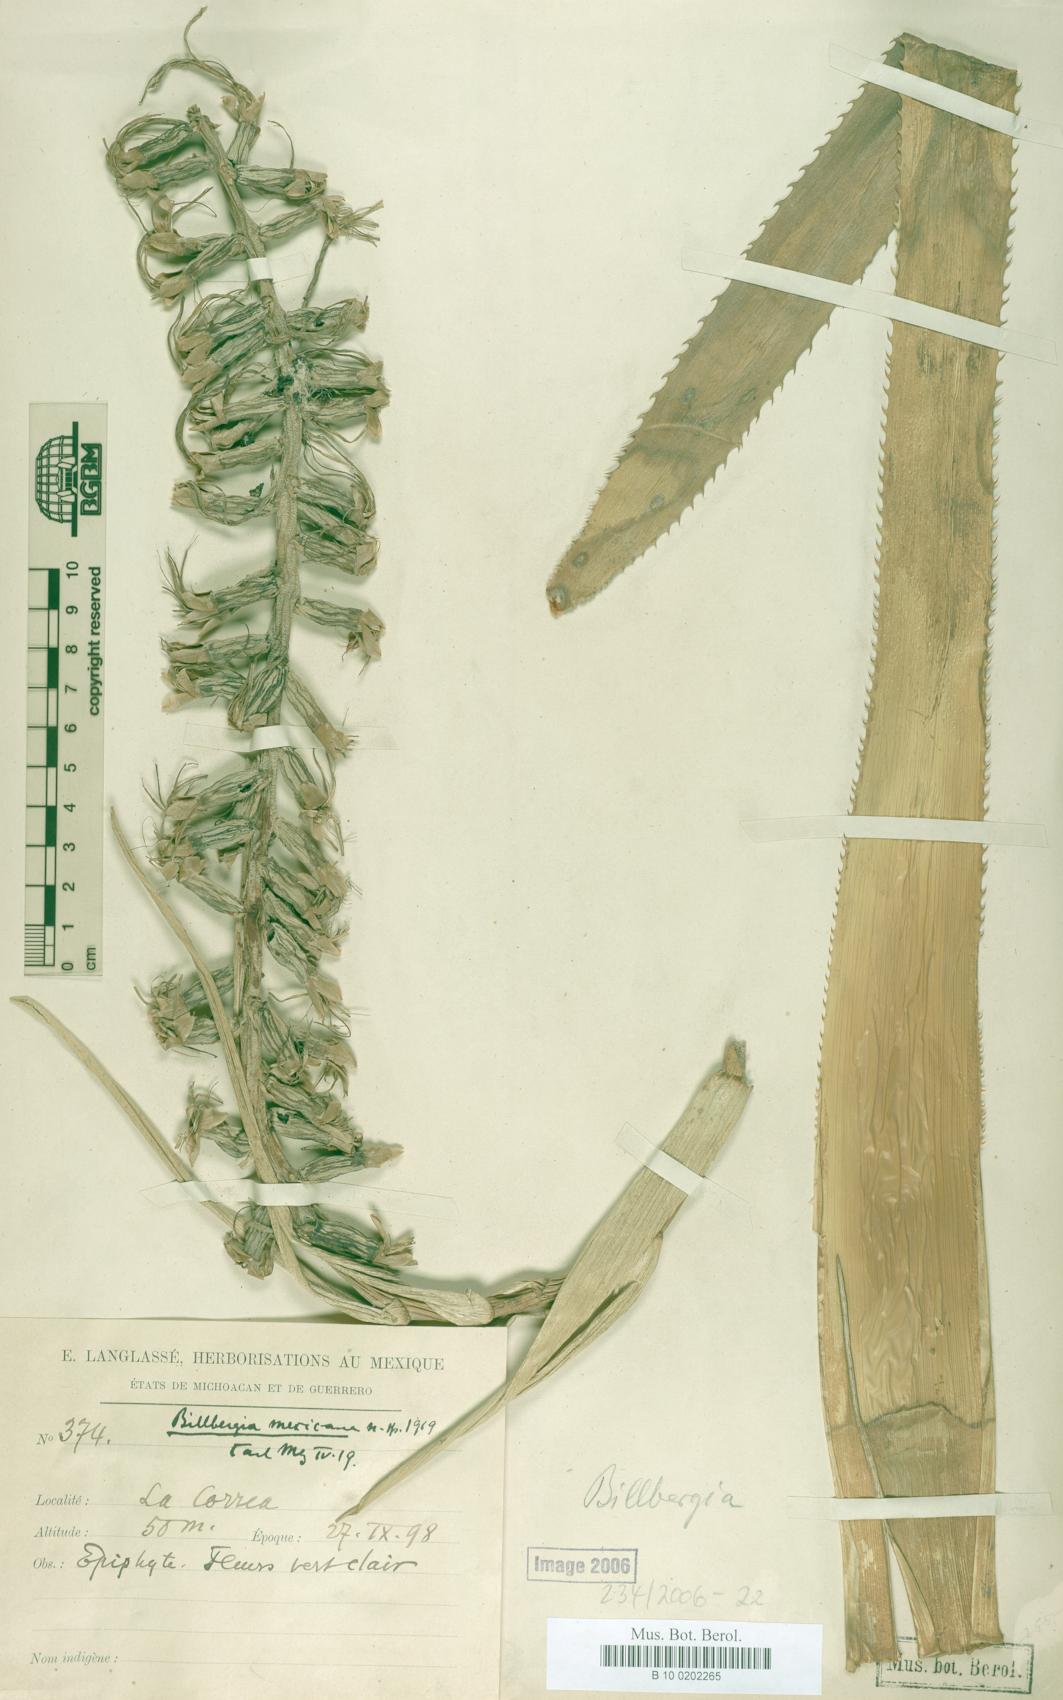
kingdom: Plantae
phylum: Tracheophyta
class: Liliopsida
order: Poales
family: Bromeliaceae
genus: Billbergia
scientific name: Billbergia pallidiflora
